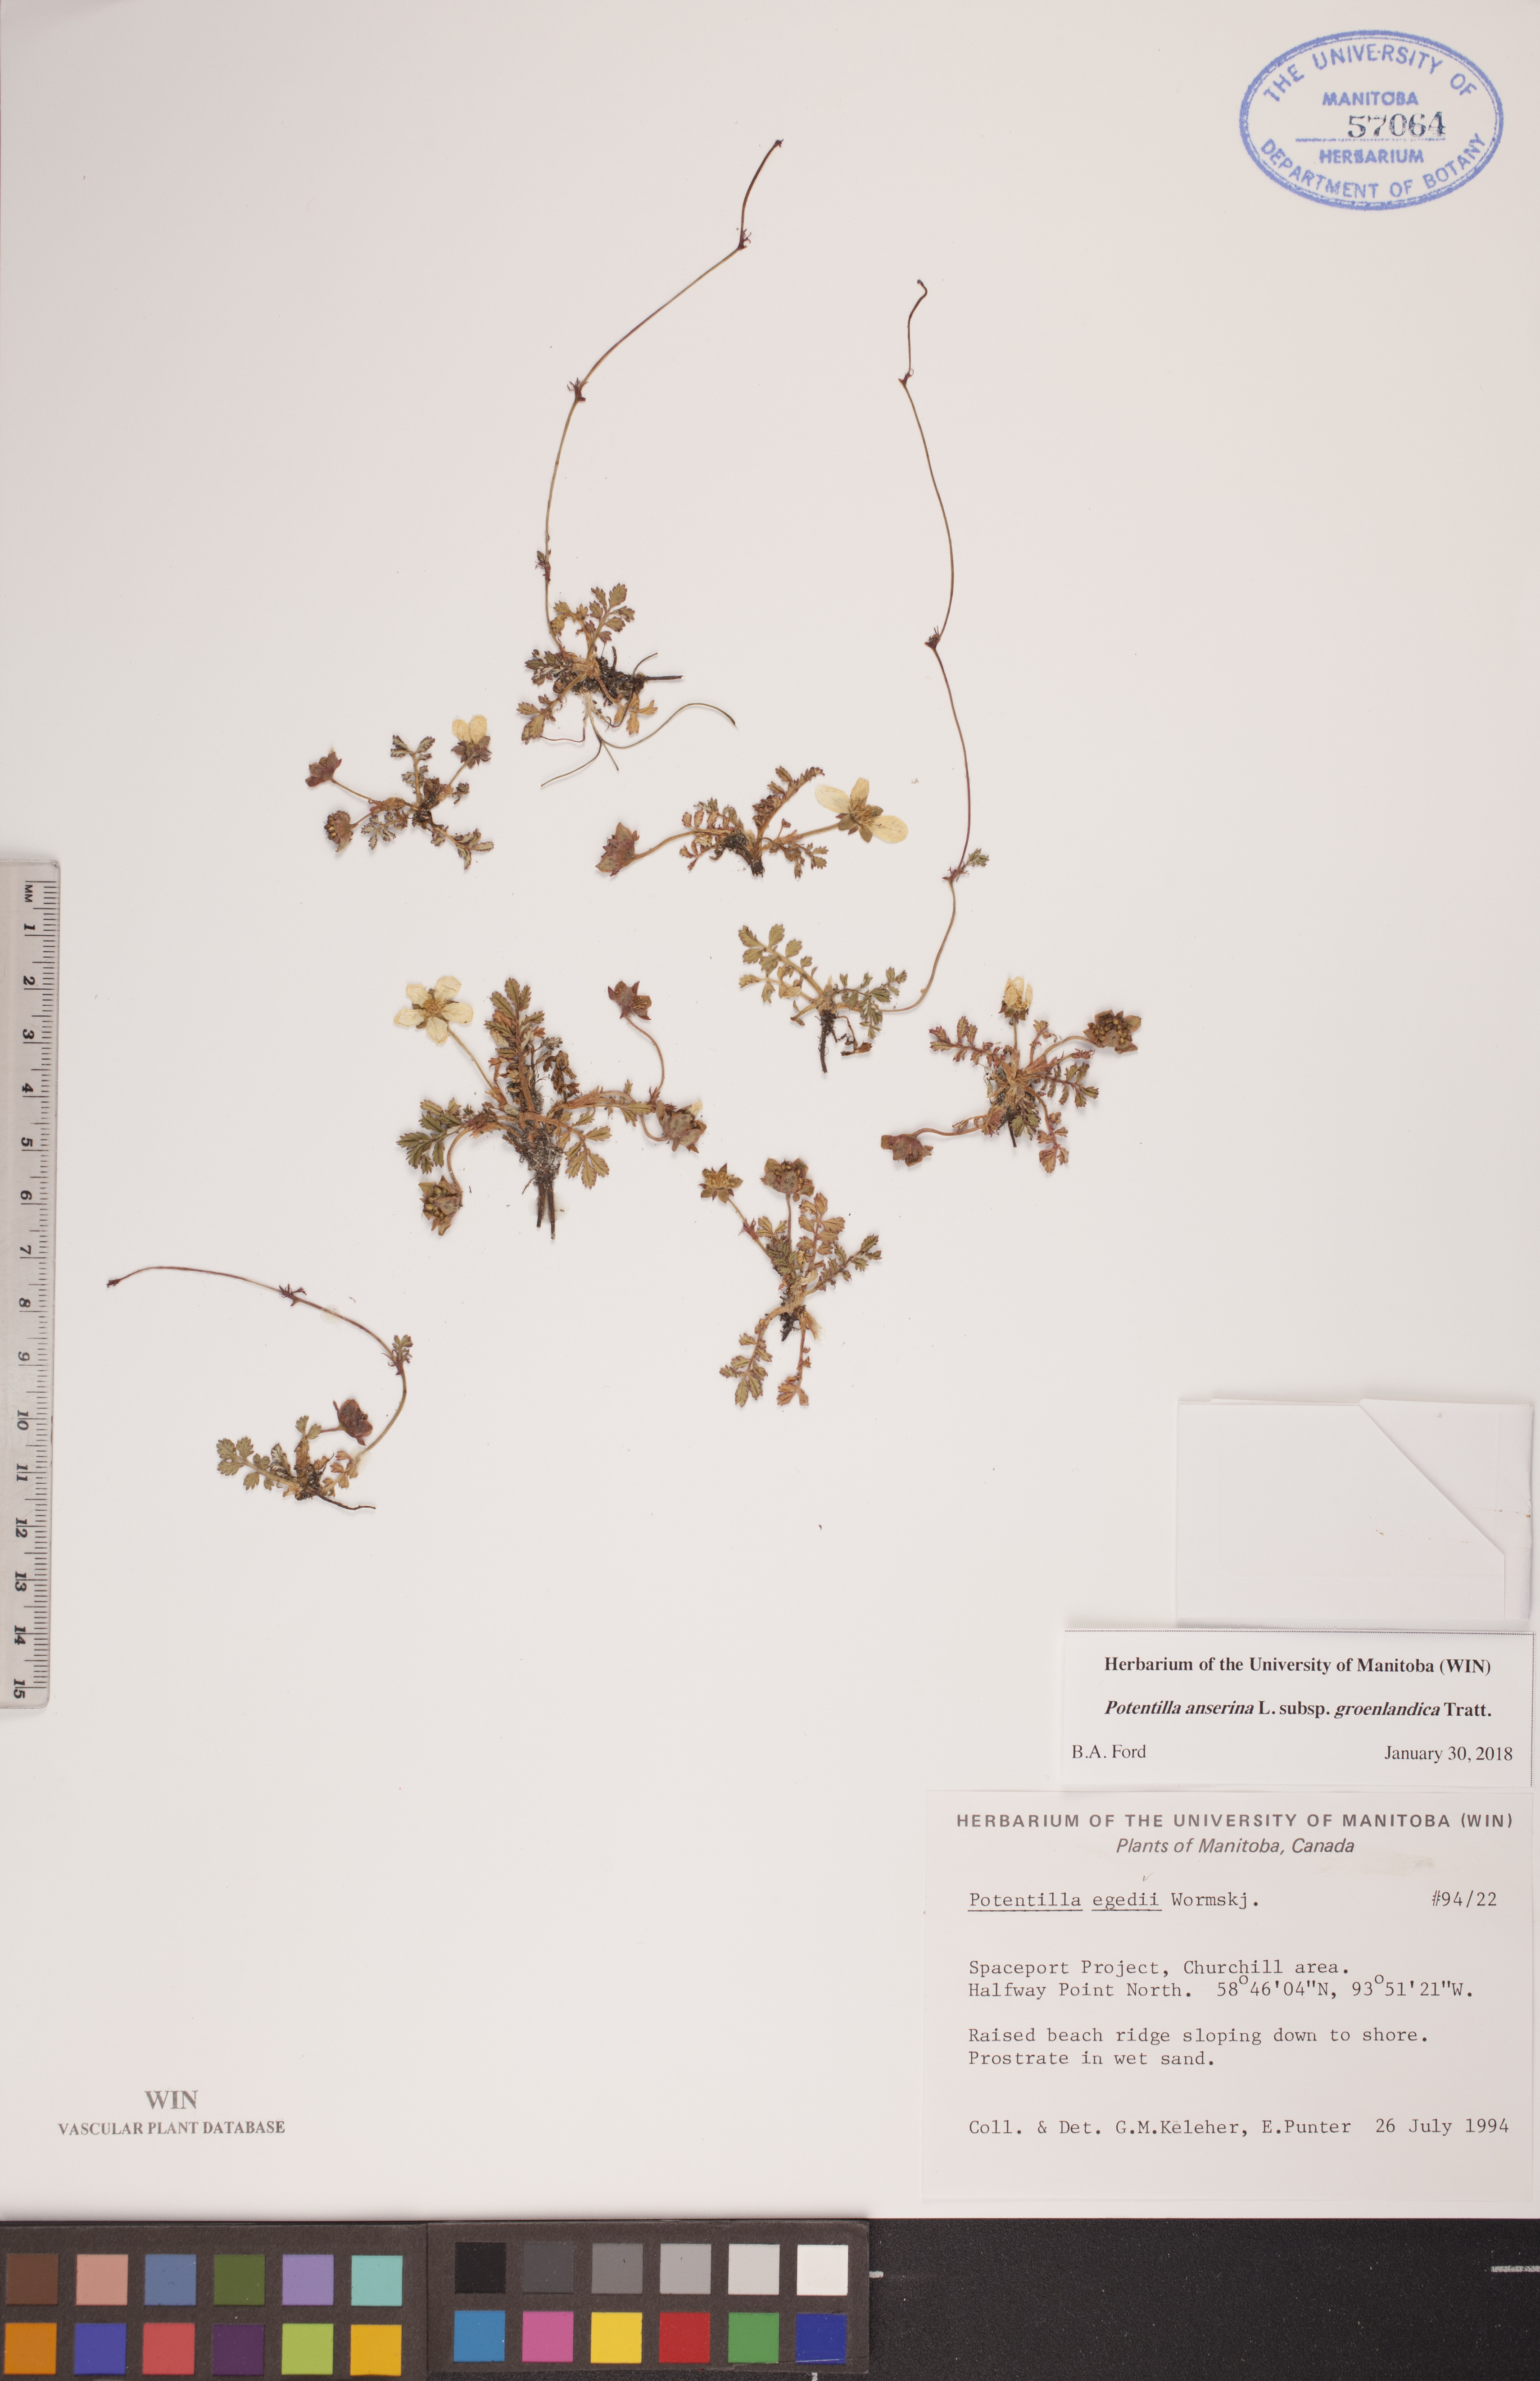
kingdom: Plantae
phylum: Tracheophyta
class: Magnoliopsida
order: Rosales
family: Rosaceae
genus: Argentina
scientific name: Argentina anserina
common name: Common silverweed
